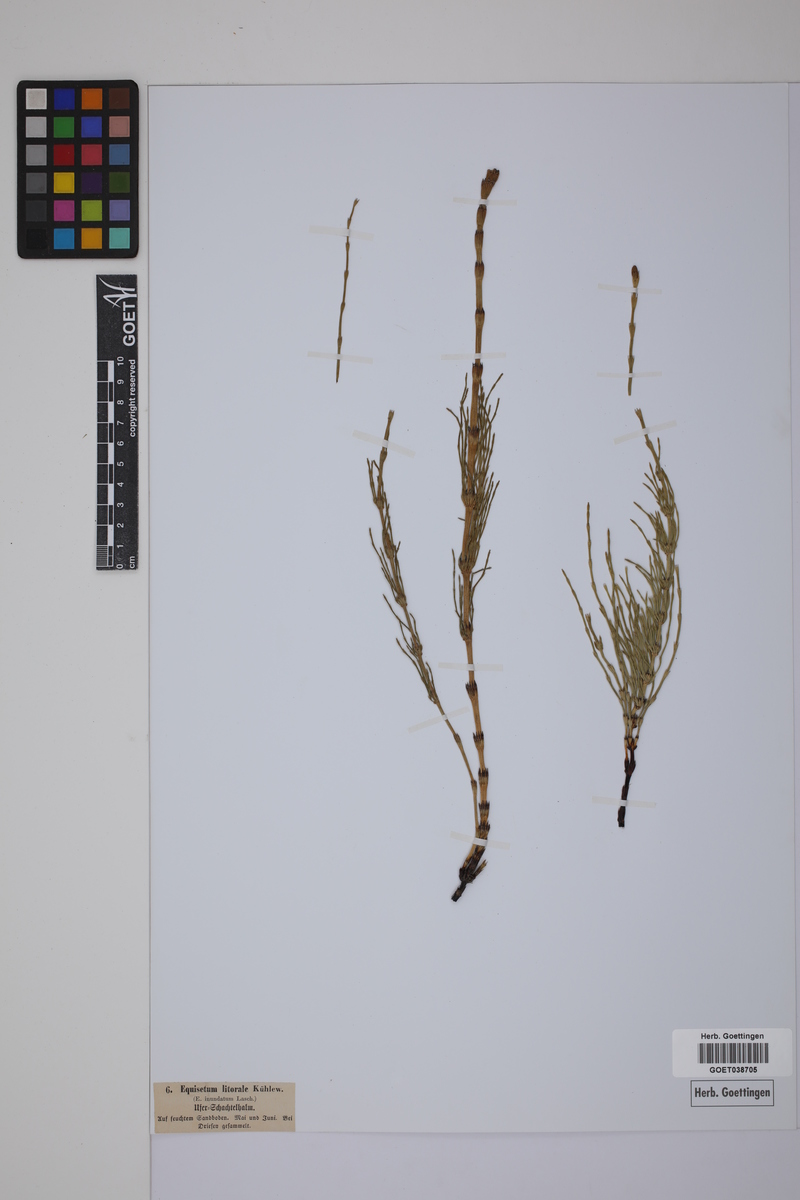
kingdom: Plantae
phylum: Tracheophyta
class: Polypodiopsida
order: Equisetales
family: Equisetaceae
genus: Equisetum
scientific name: Equisetum litorale
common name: Littoral horsetail
